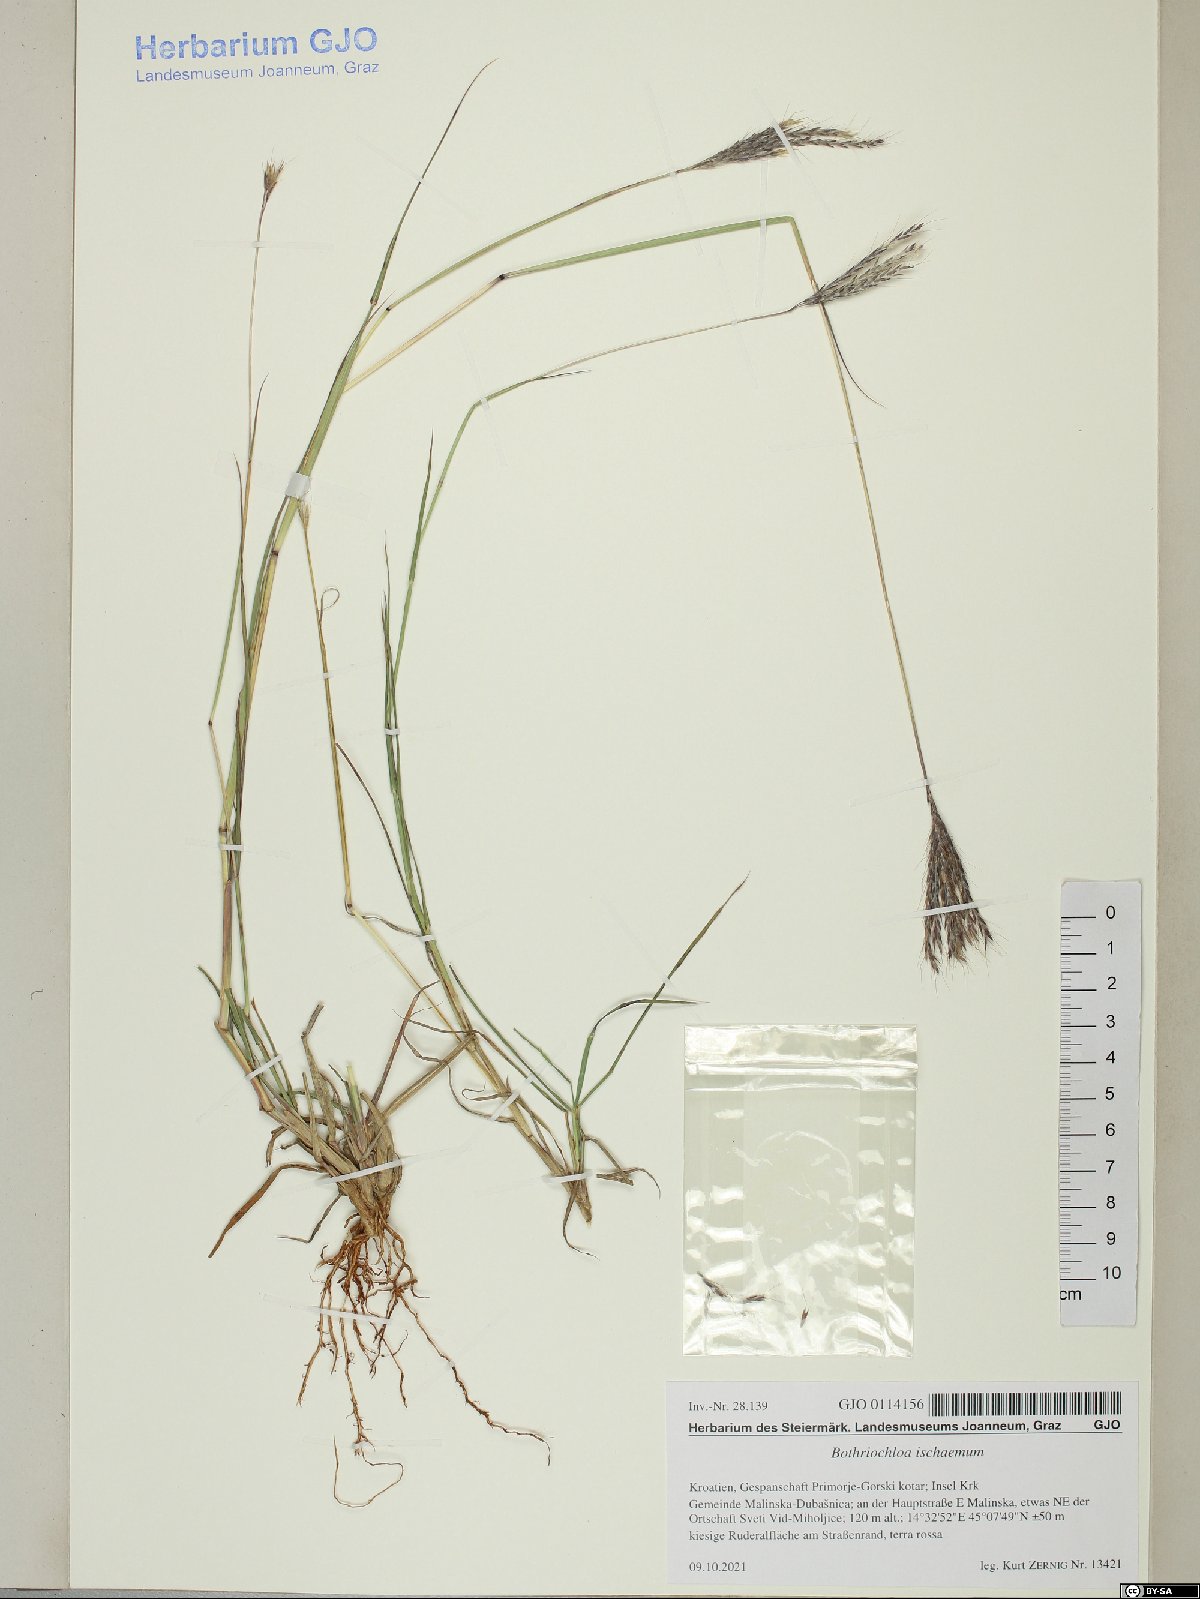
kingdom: Plantae
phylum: Tracheophyta
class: Liliopsida
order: Poales
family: Poaceae
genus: Bothriochloa
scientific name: Bothriochloa ischaemum
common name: Yellow bluestem
